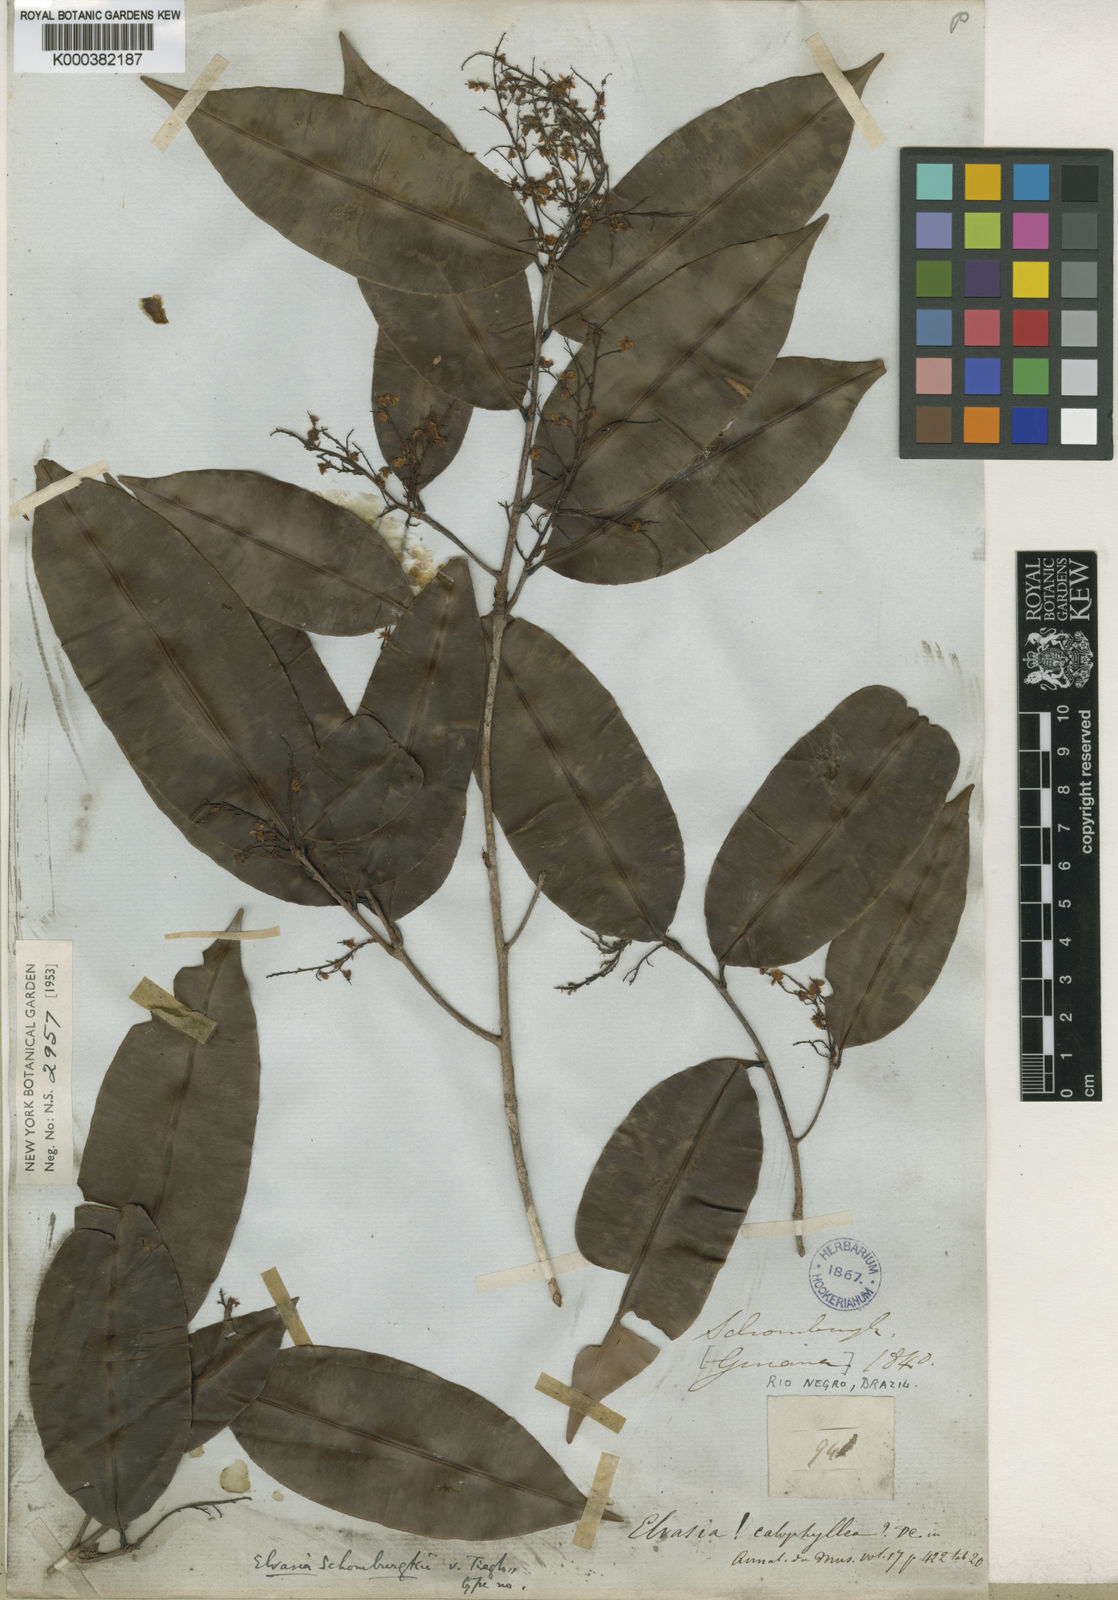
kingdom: Plantae
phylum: Tracheophyta
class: Magnoliopsida
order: Malpighiales
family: Ochnaceae
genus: Elvasia
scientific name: Elvasia calophyllea
